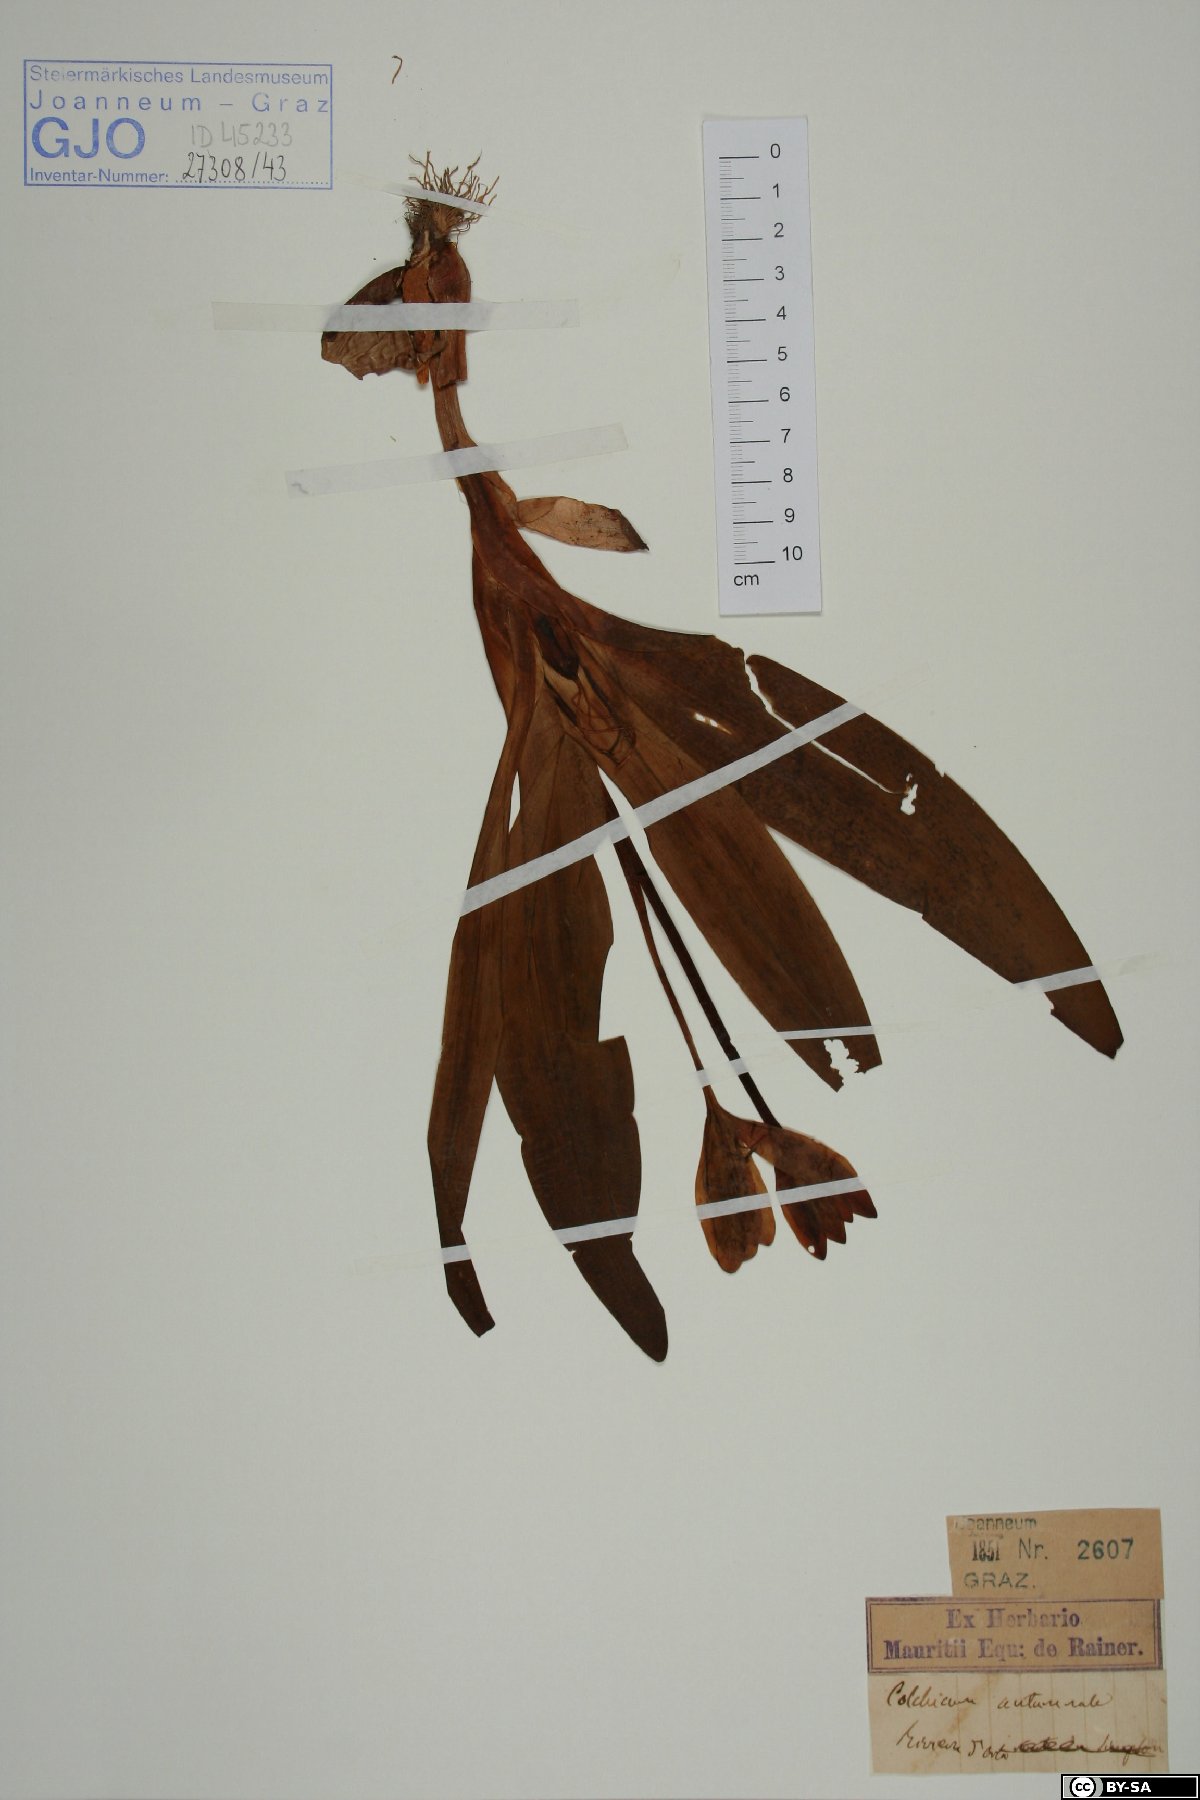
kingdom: Plantae
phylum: Tracheophyta
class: Liliopsida
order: Liliales
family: Colchicaceae
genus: Colchicum
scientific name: Colchicum autumnale
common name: Autumn crocus
